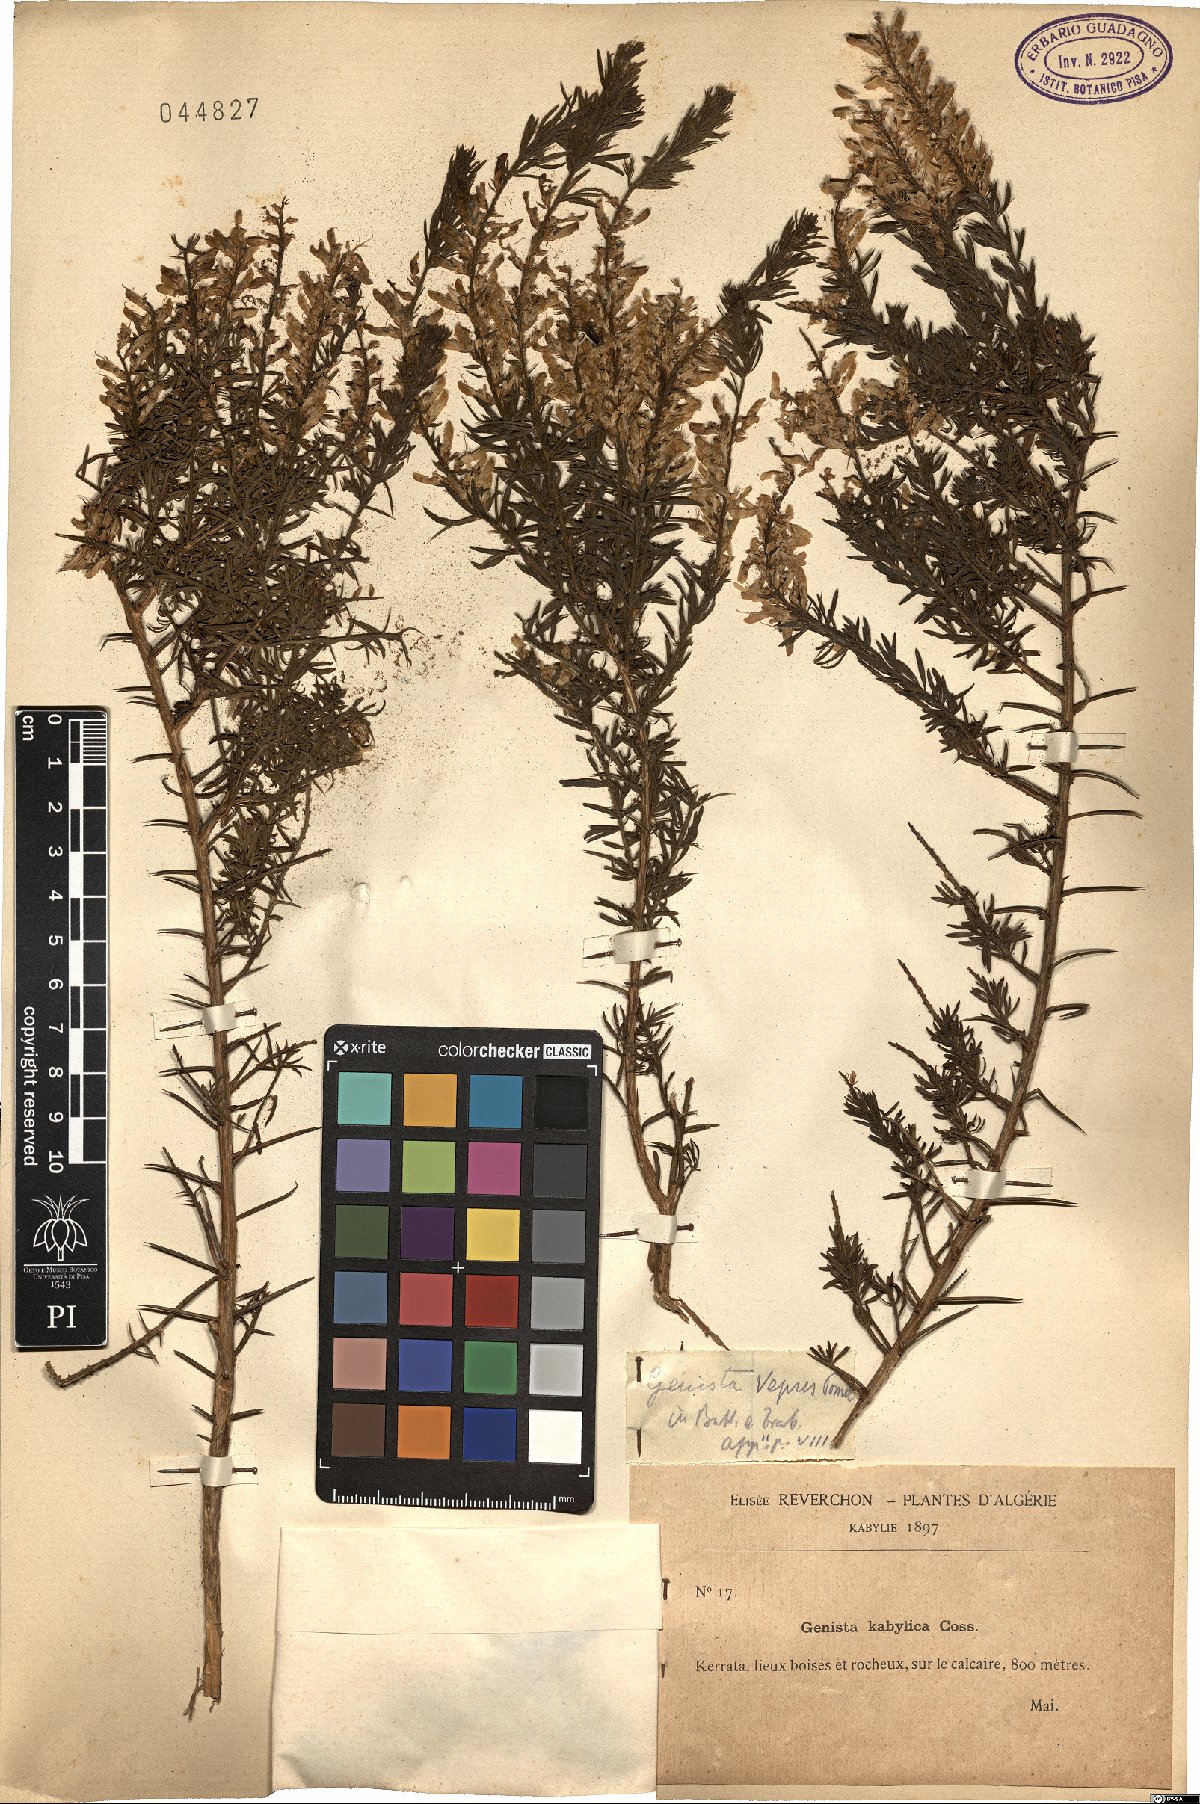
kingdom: Plantae
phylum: Tracheophyta
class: Magnoliopsida
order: Fabales
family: Fabaceae
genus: Genista
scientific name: Genista triacanthos
